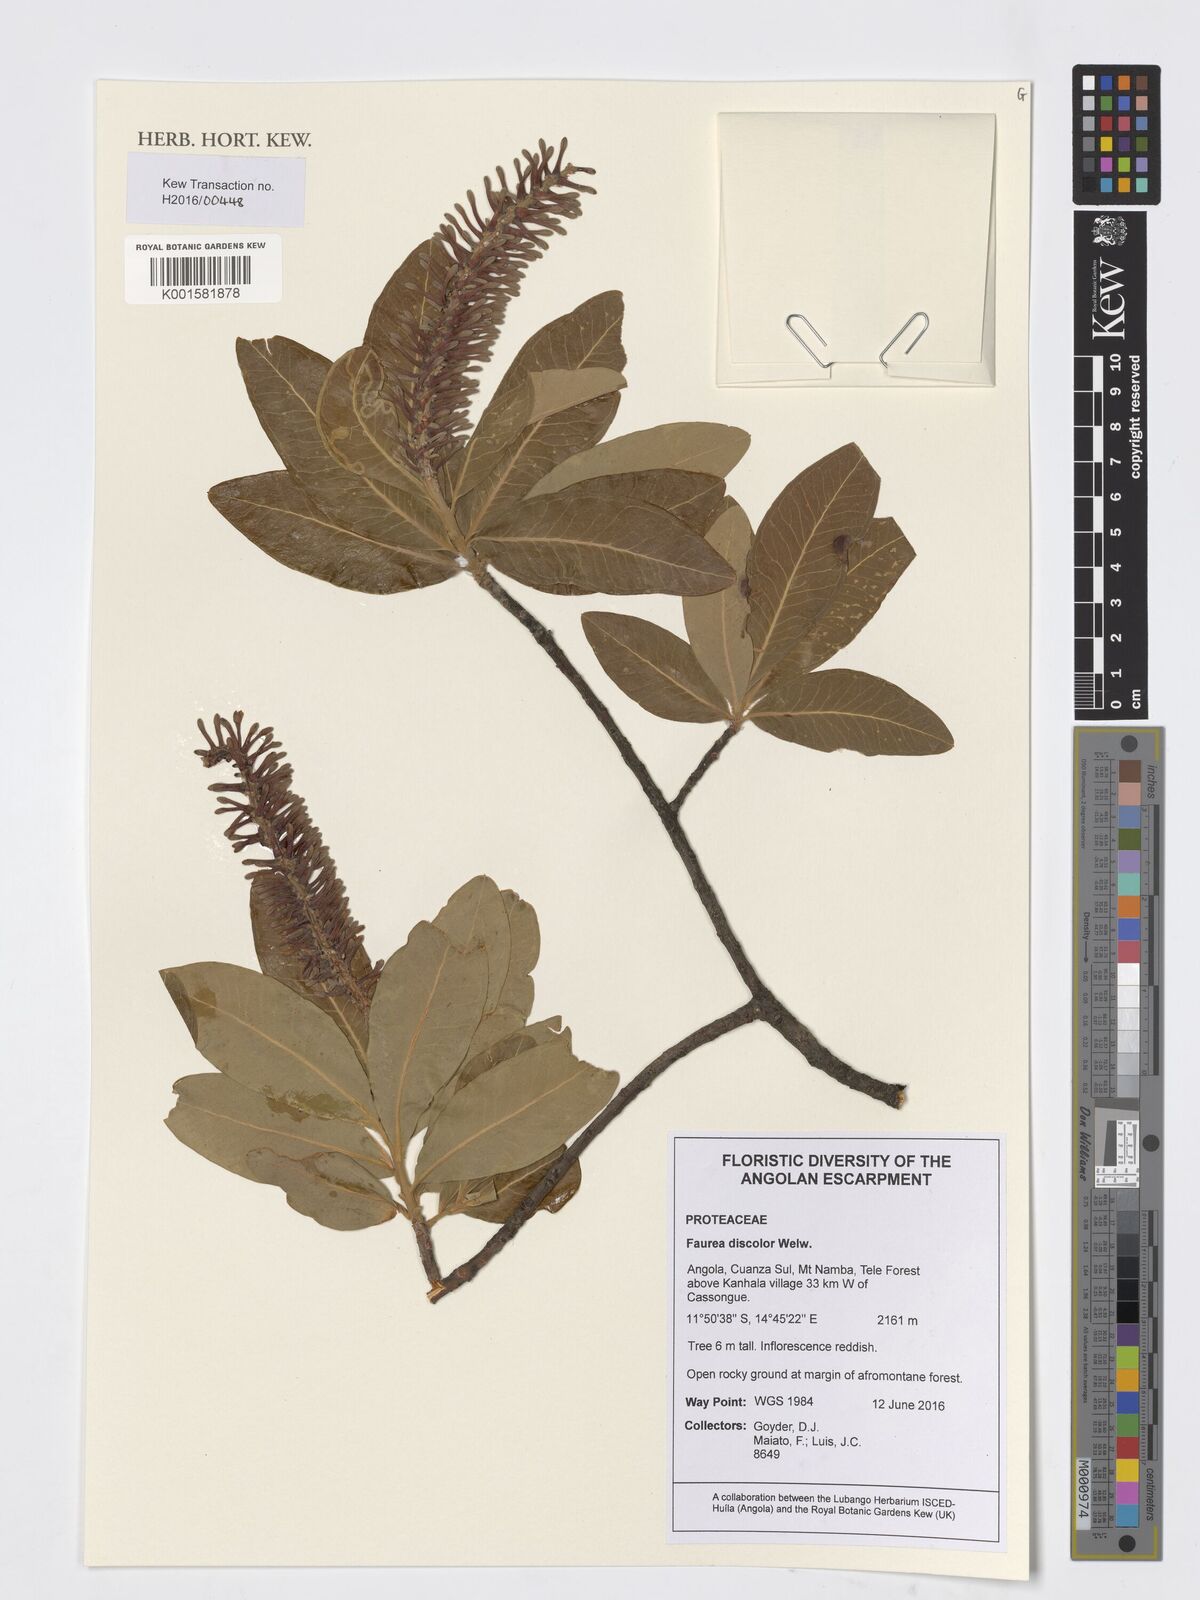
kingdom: Plantae
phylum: Tracheophyta
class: Magnoliopsida
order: Proteales
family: Proteaceae
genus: Faurea
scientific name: Faurea discolor
